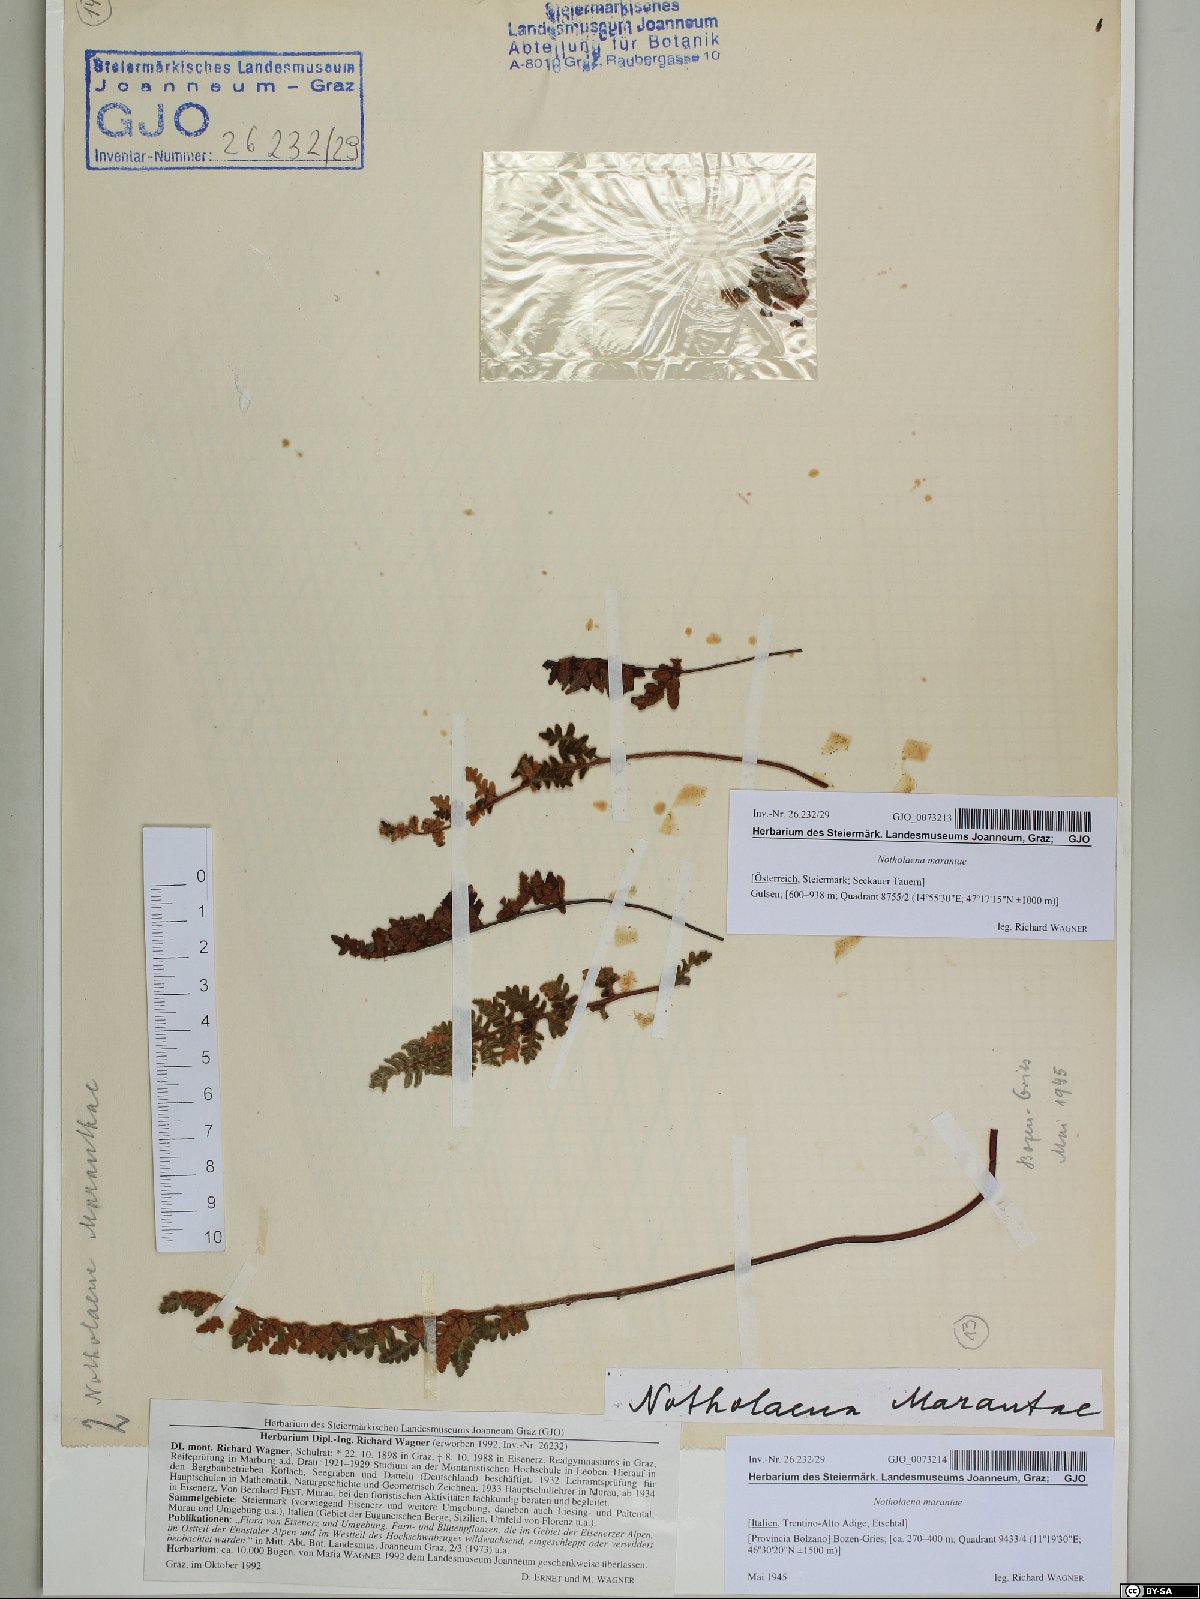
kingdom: Plantae
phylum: Tracheophyta
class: Polypodiopsida
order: Polypodiales
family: Pteridaceae
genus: Paragymnopteris
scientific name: Paragymnopteris marantae
